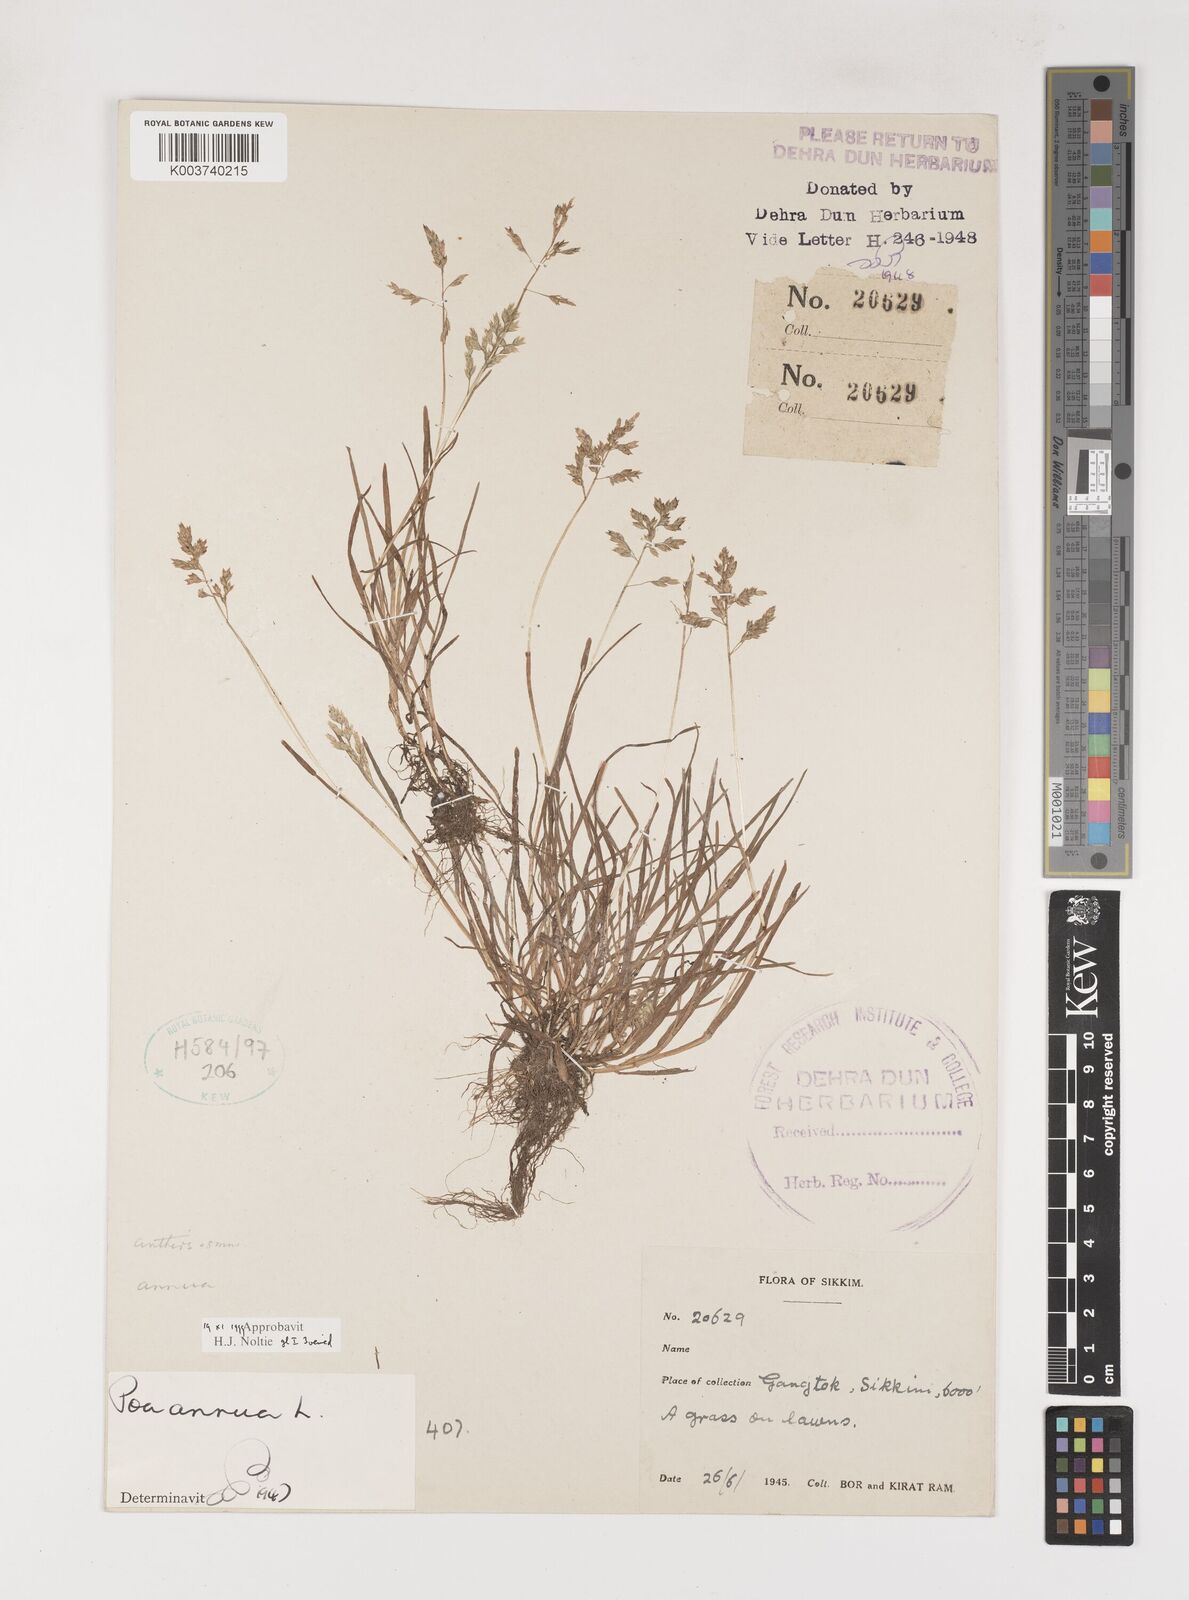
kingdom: Plantae
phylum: Tracheophyta
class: Liliopsida
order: Poales
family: Poaceae
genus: Poa
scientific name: Poa annua
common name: Annual bluegrass
